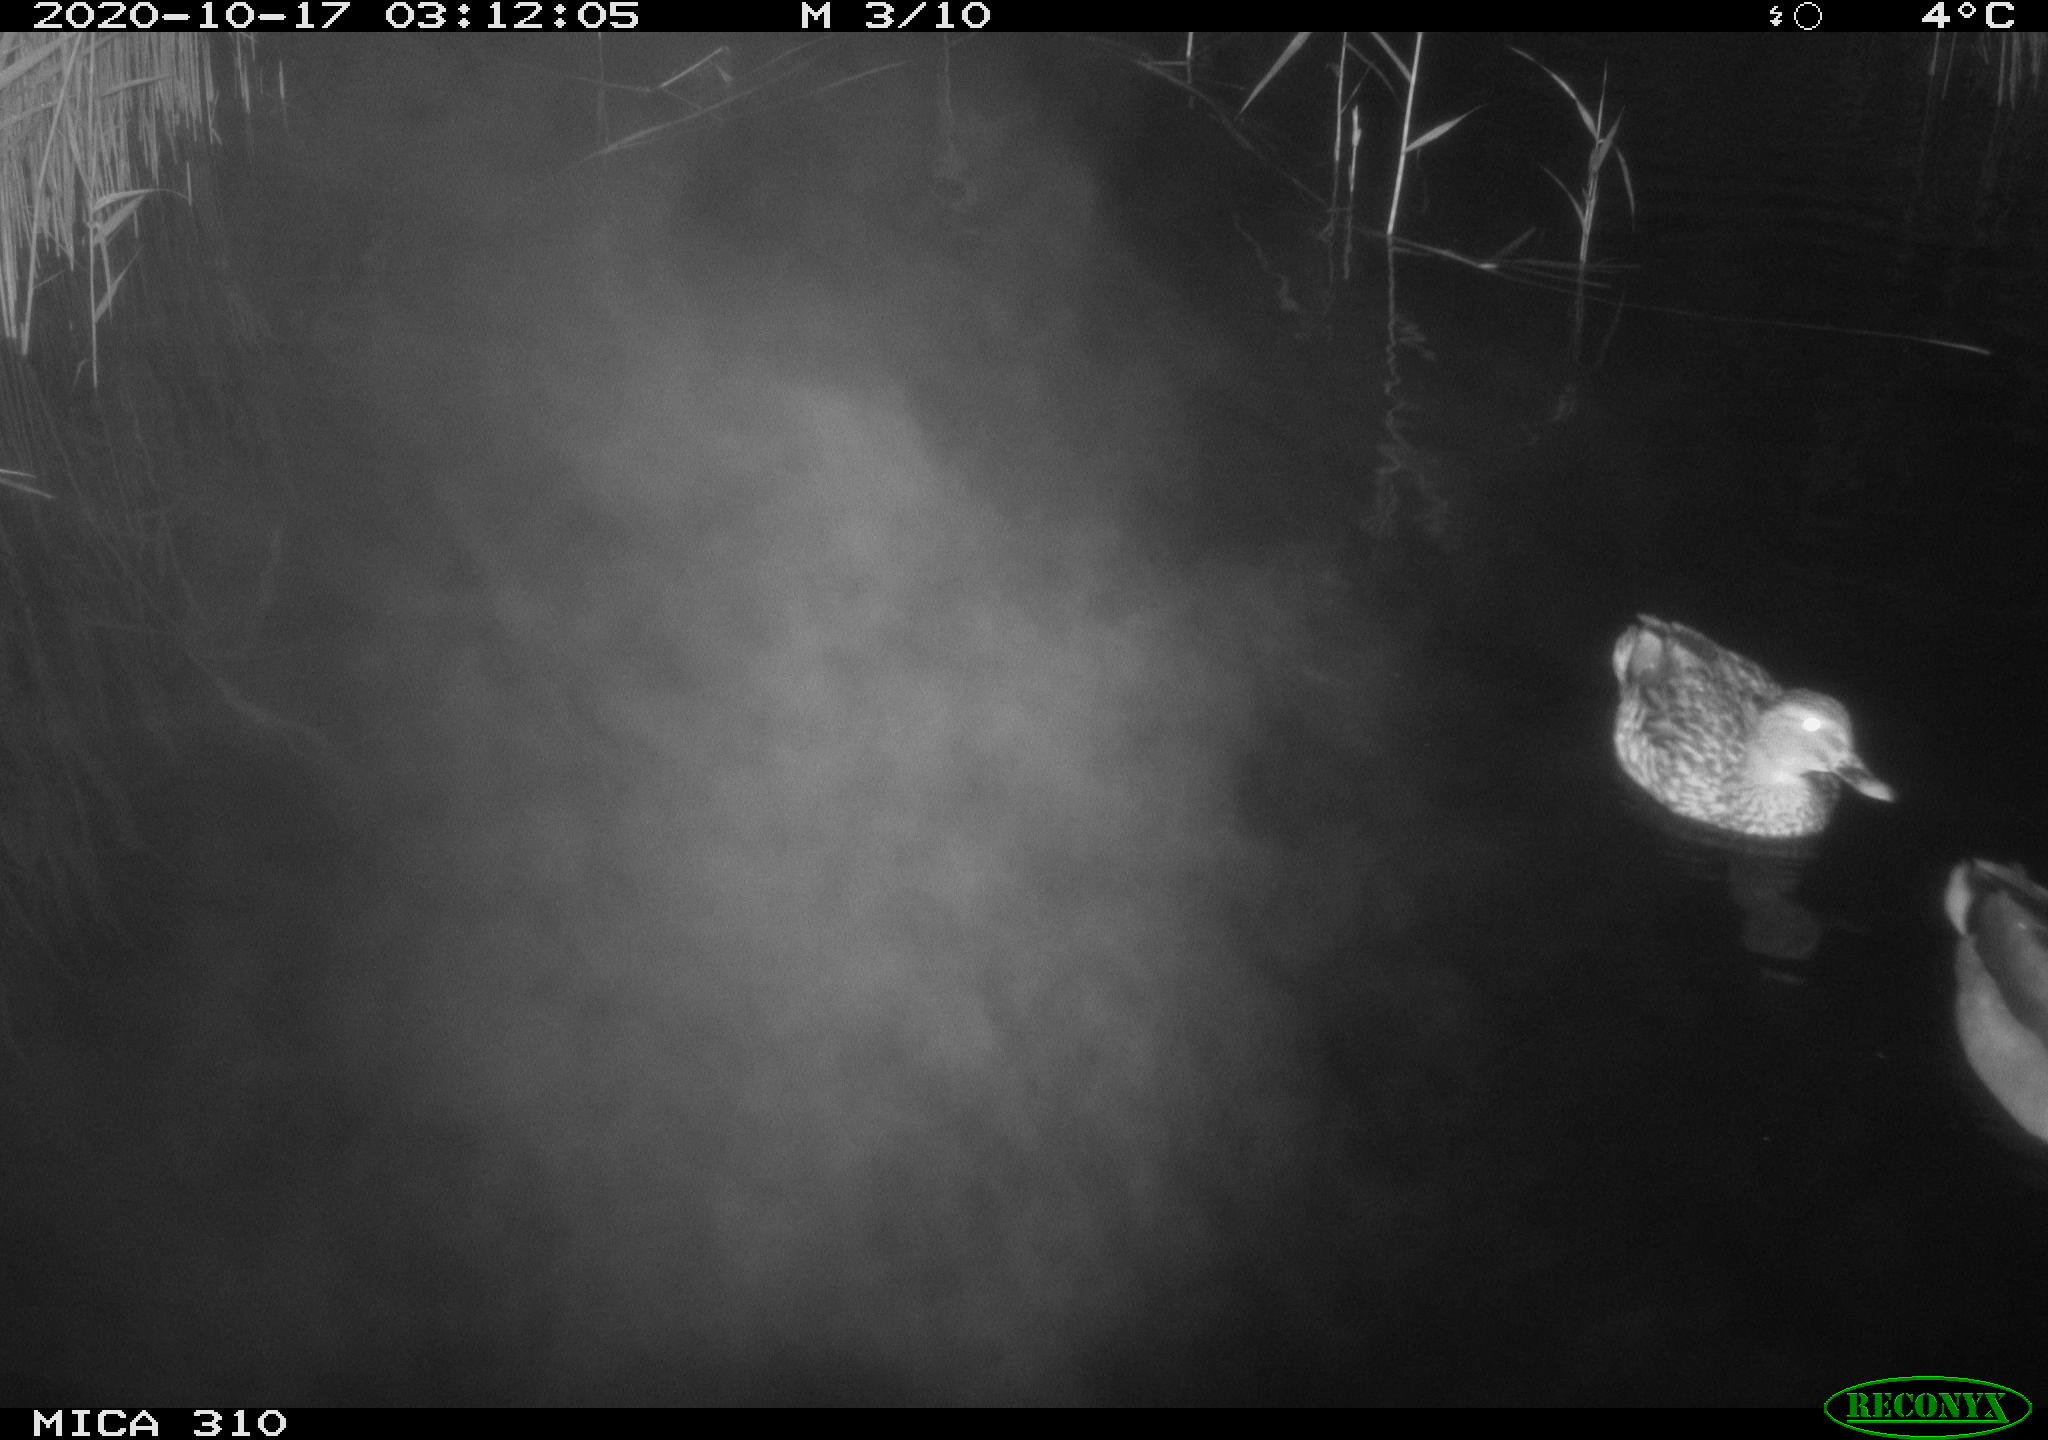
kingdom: Animalia
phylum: Chordata
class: Aves
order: Anseriformes
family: Anatidae
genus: Anas
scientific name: Anas platyrhynchos
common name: Mallard
